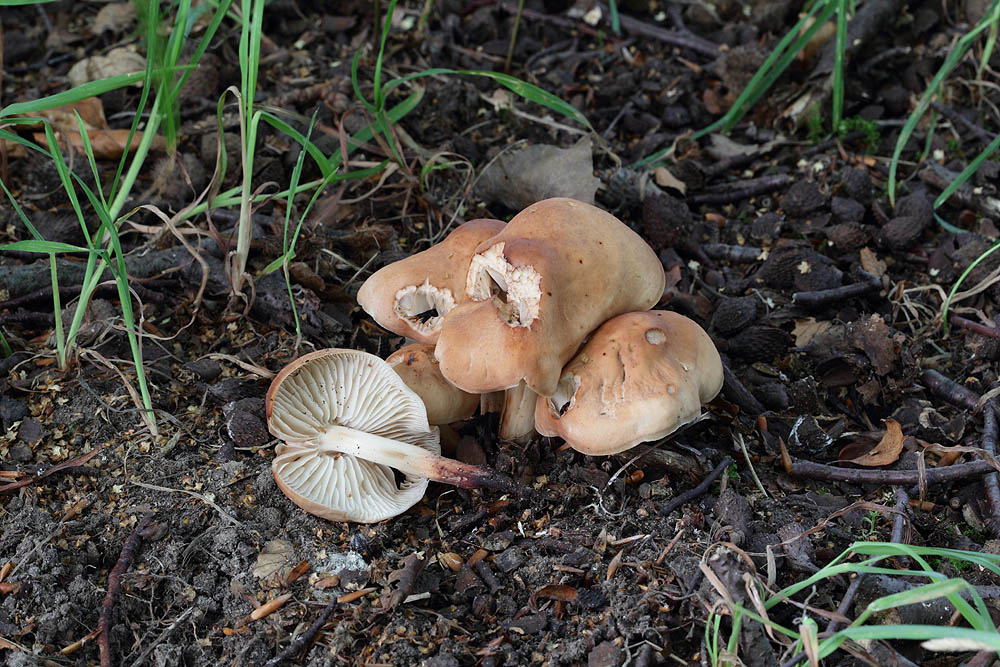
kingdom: Fungi
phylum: Basidiomycota
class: Agaricomycetes
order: Agaricales
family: Omphalotaceae
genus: Gymnopus
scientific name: Gymnopus fusipes
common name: tenstokket fladhat
